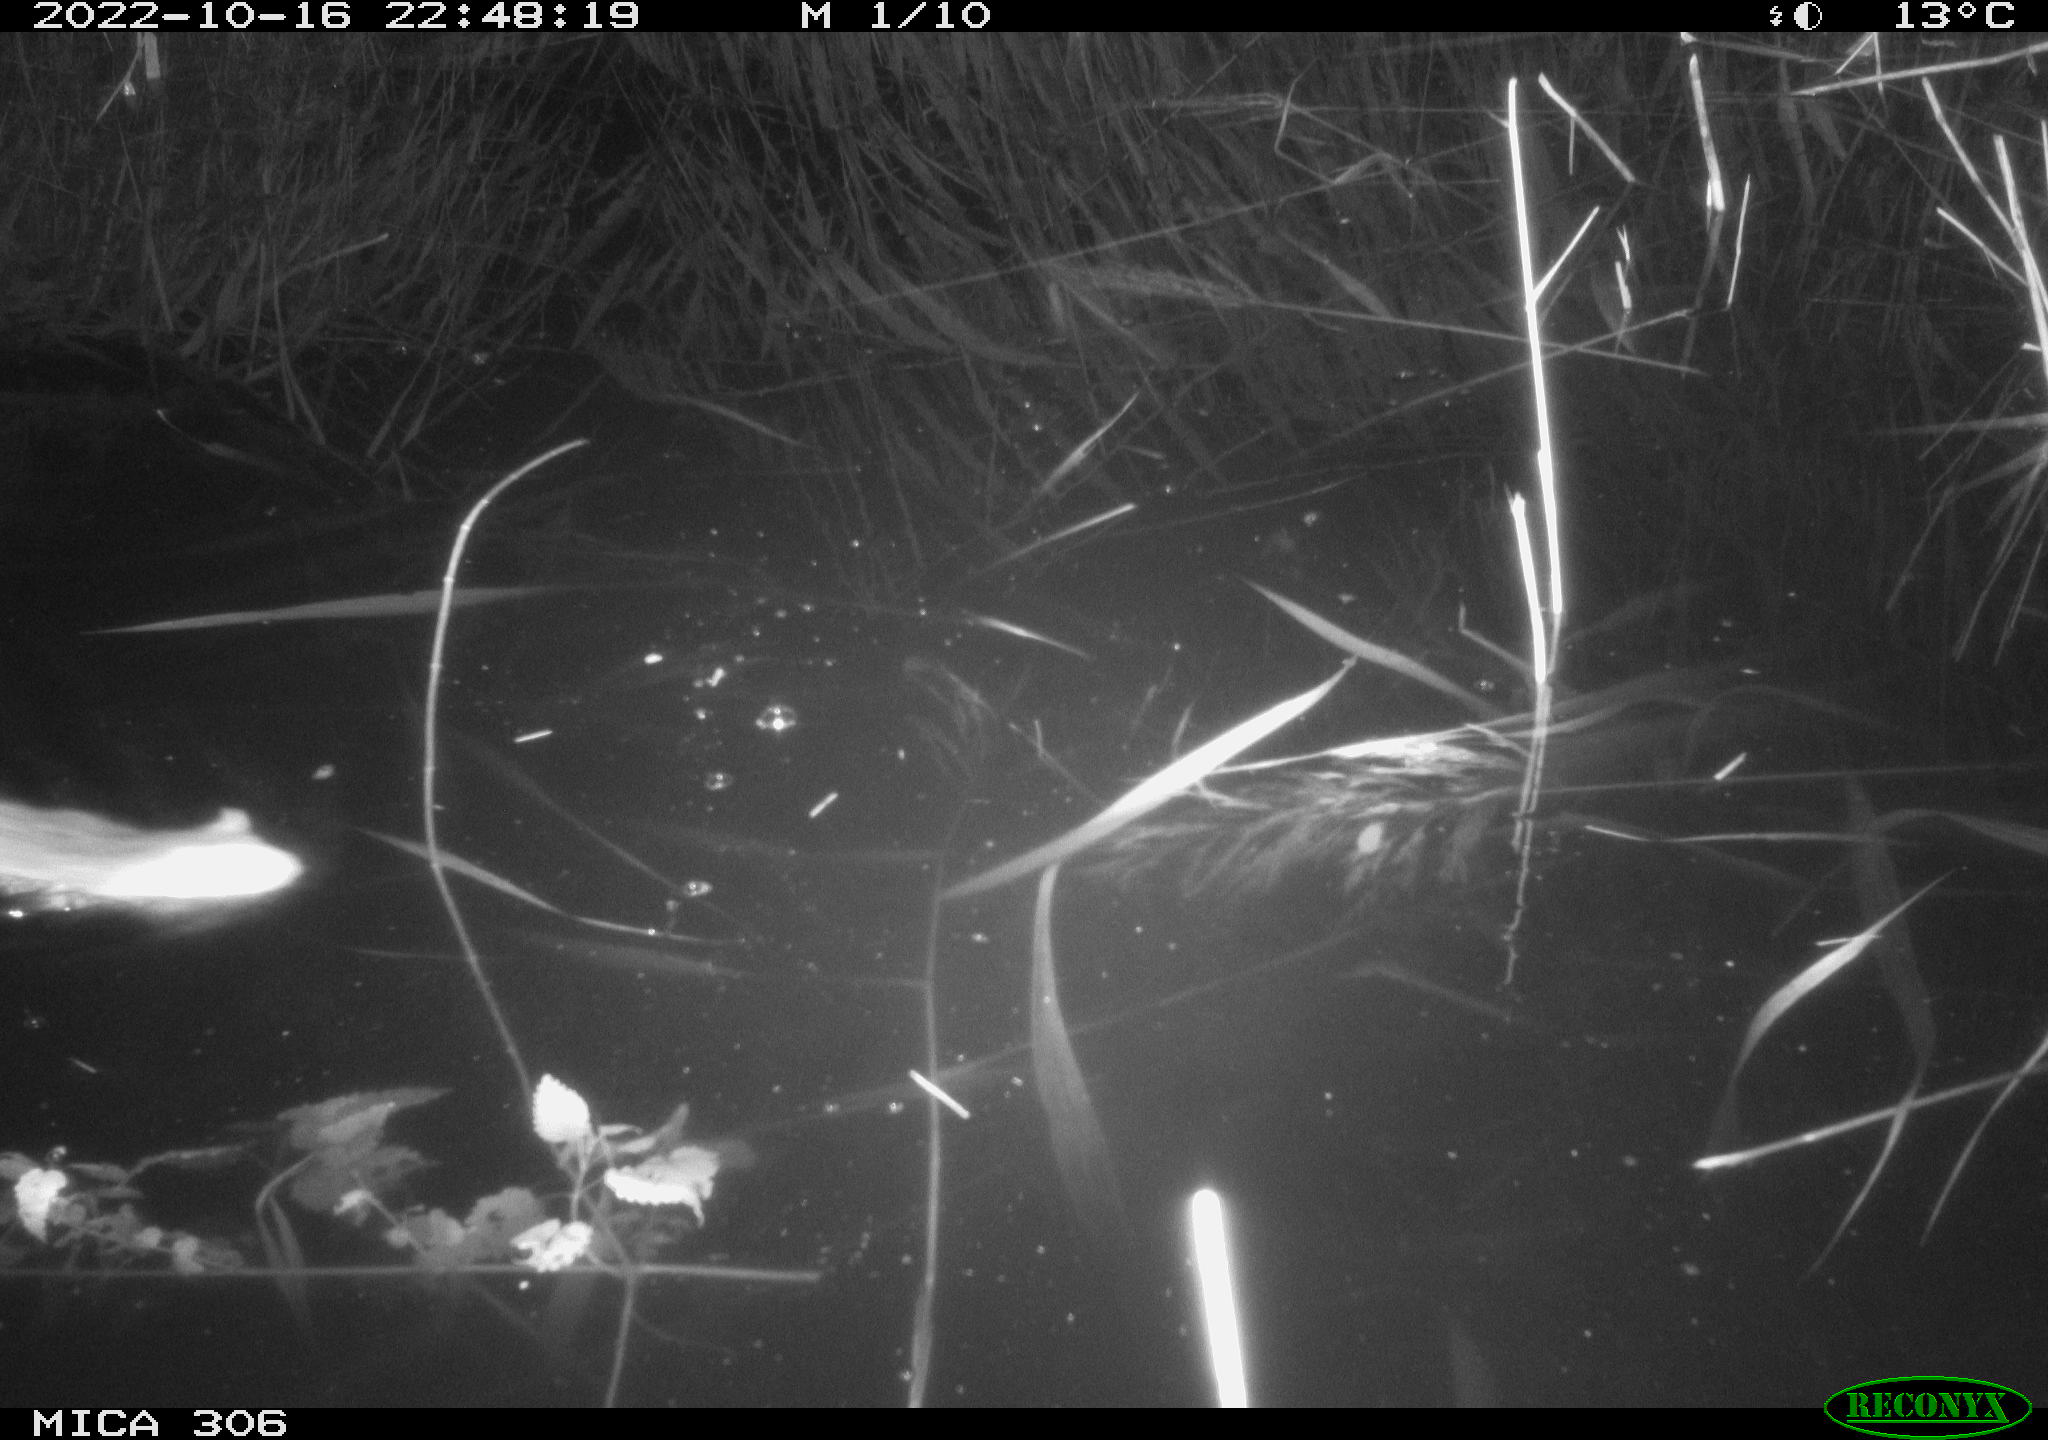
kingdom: Animalia
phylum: Chordata
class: Mammalia
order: Rodentia
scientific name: Rodentia
